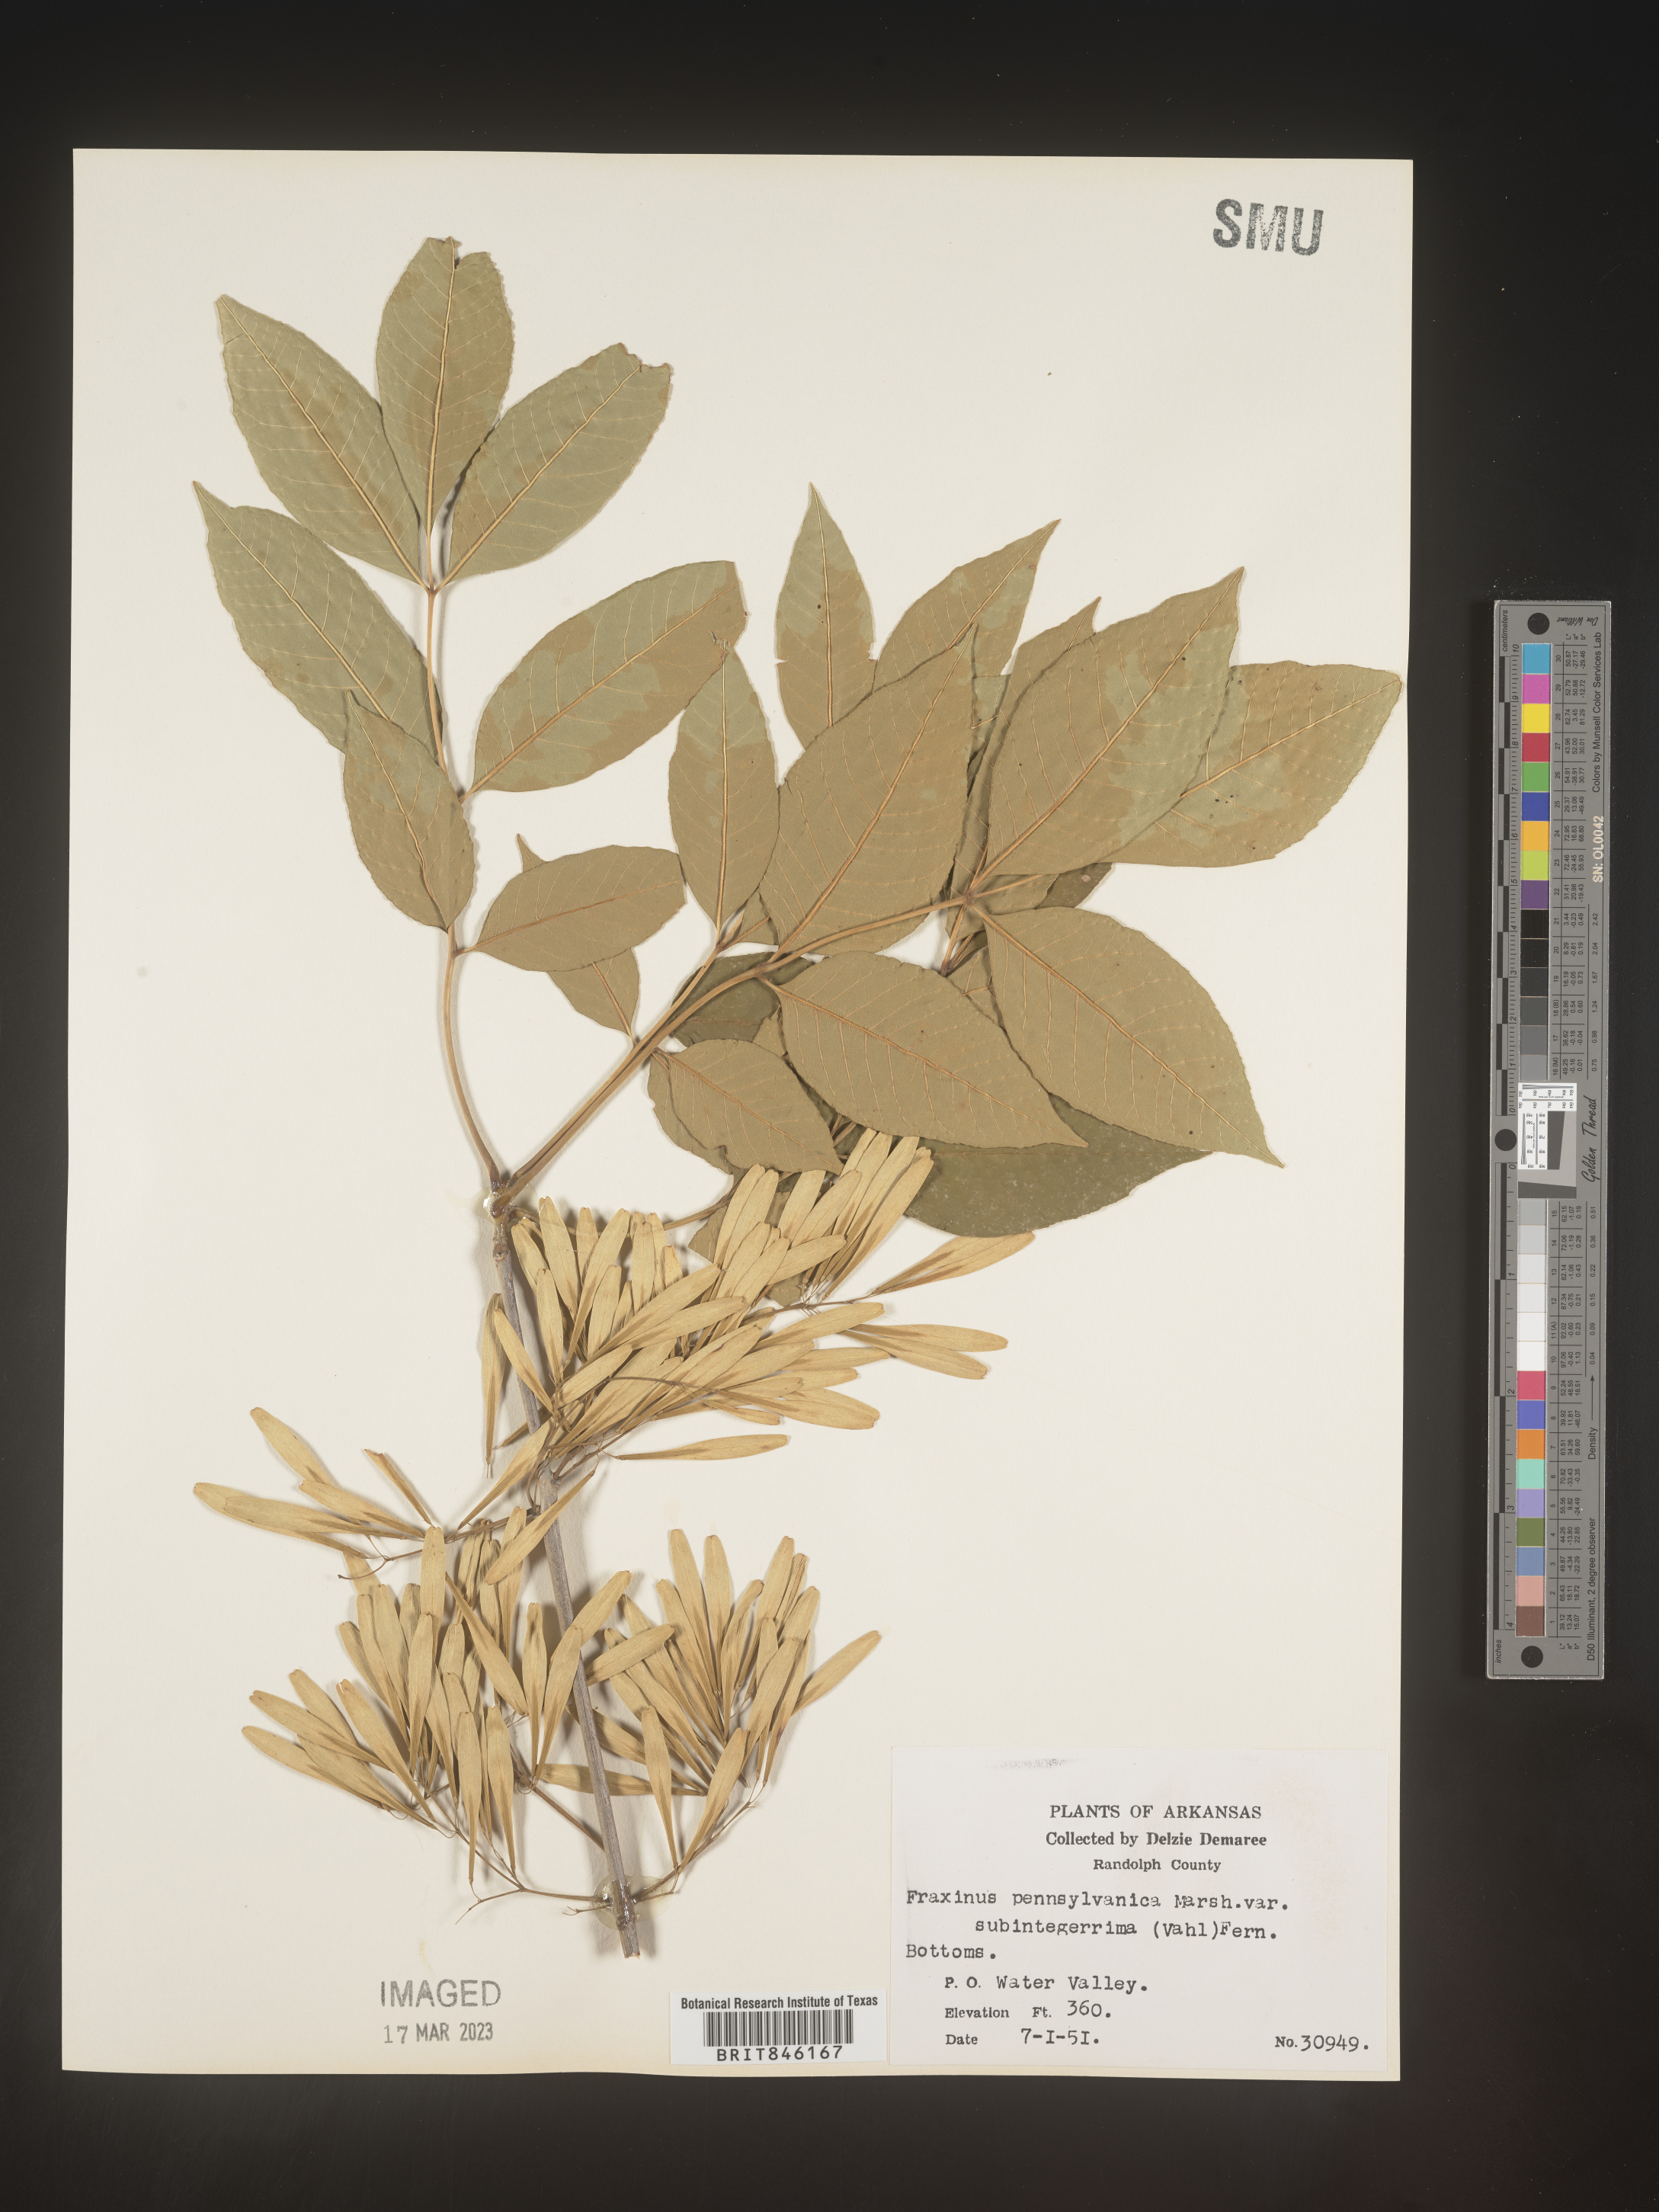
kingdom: Plantae
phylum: Tracheophyta
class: Magnoliopsida
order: Lamiales
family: Oleaceae
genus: Fraxinus
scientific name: Fraxinus pennsylvanica
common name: Green ash
